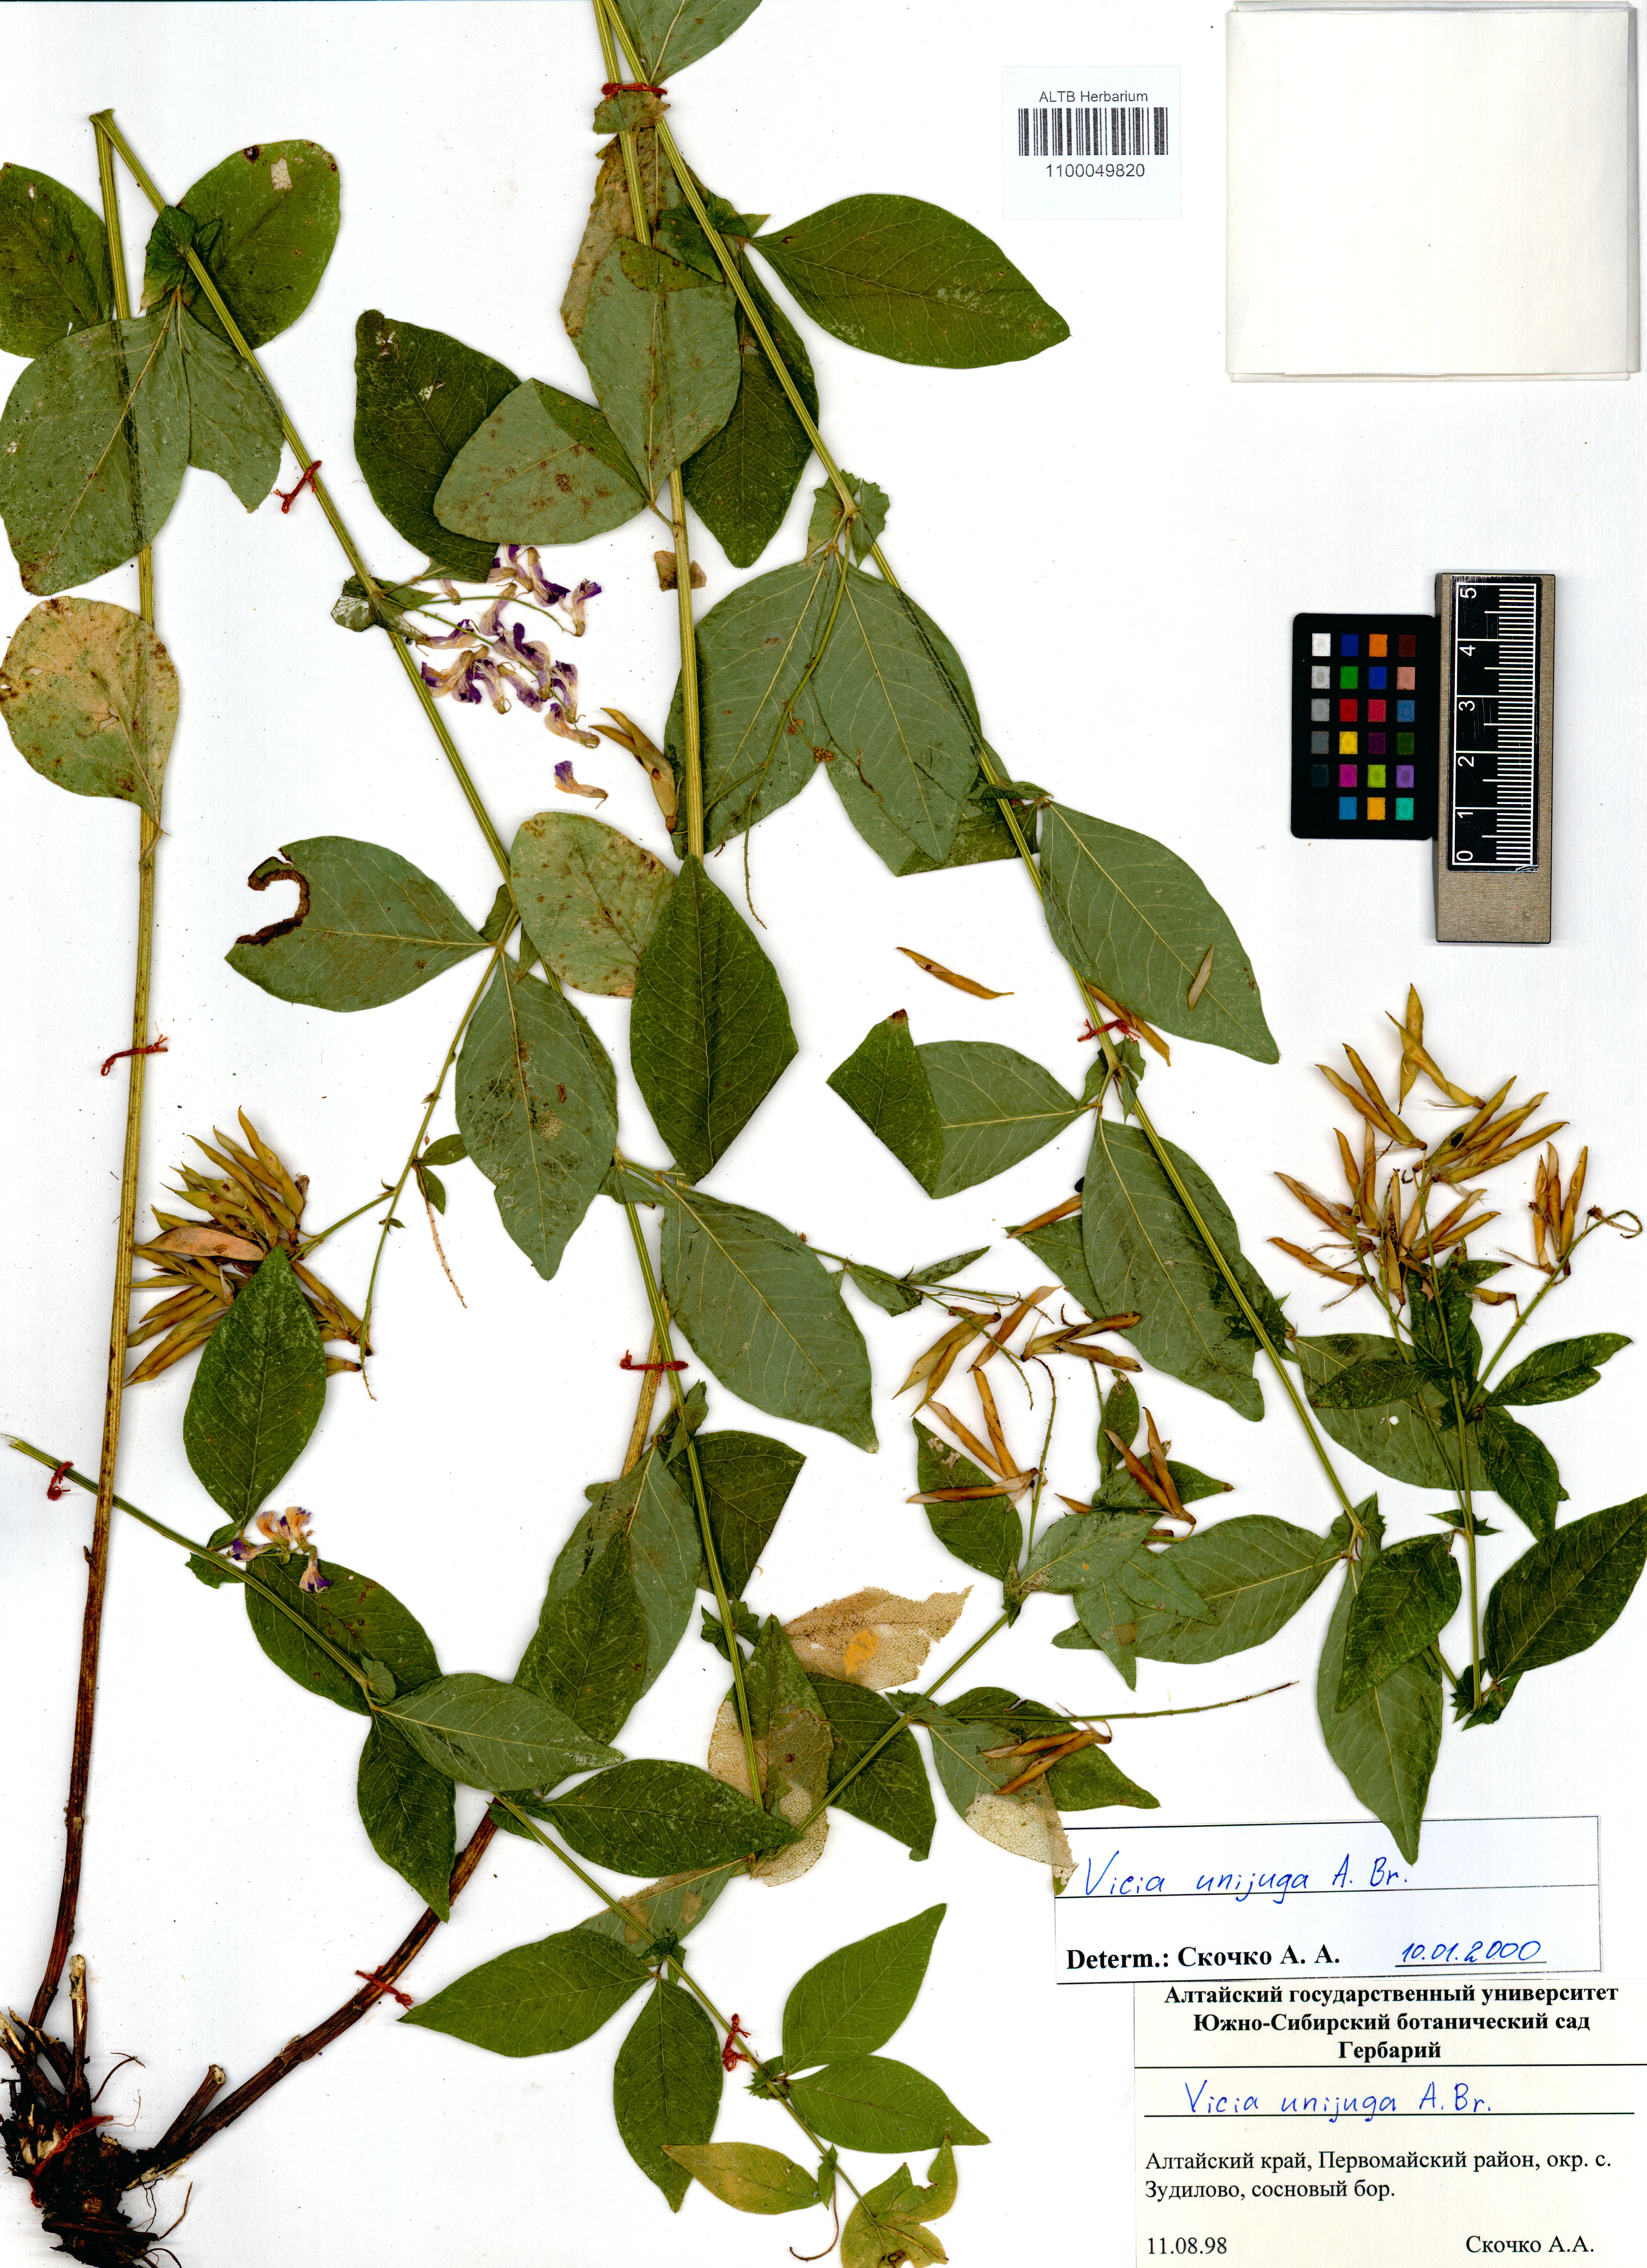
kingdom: Plantae
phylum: Tracheophyta
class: Magnoliopsida
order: Fabales
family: Fabaceae
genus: Vicia
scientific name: Vicia unijuga
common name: Two-leaf vetch
